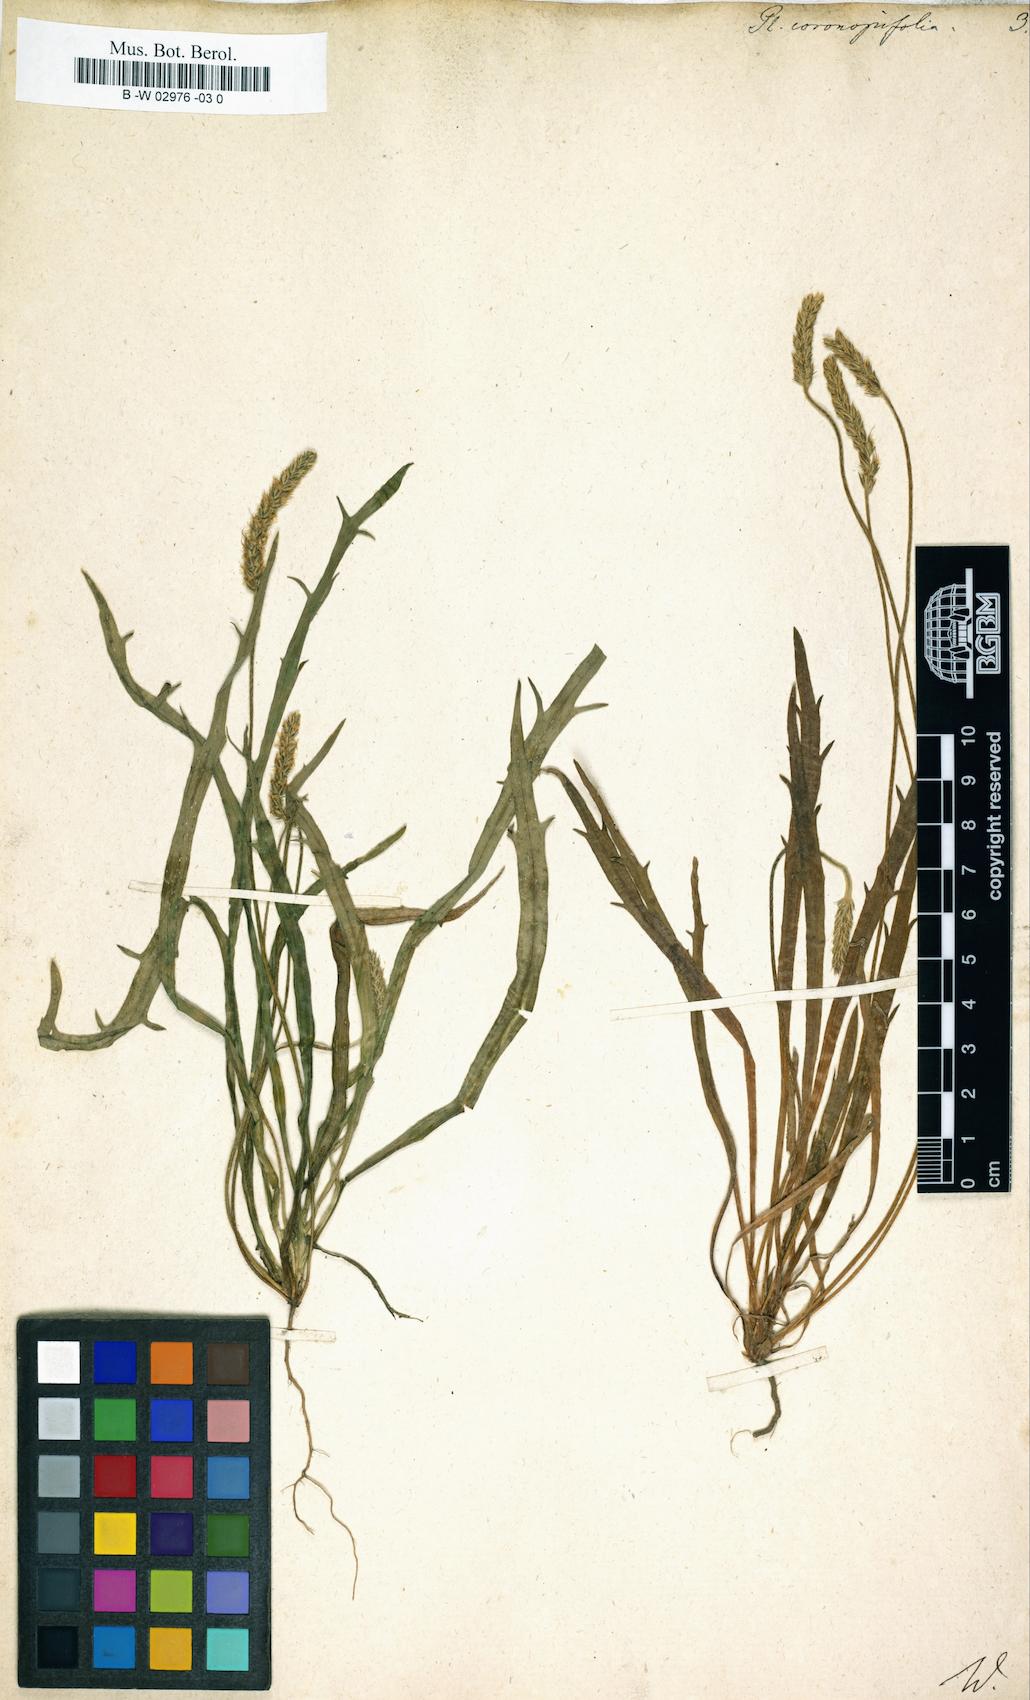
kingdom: Plantae
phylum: Tracheophyta
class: Magnoliopsida
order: Lamiales
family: Plantaginaceae
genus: Plantago
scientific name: Plantago
